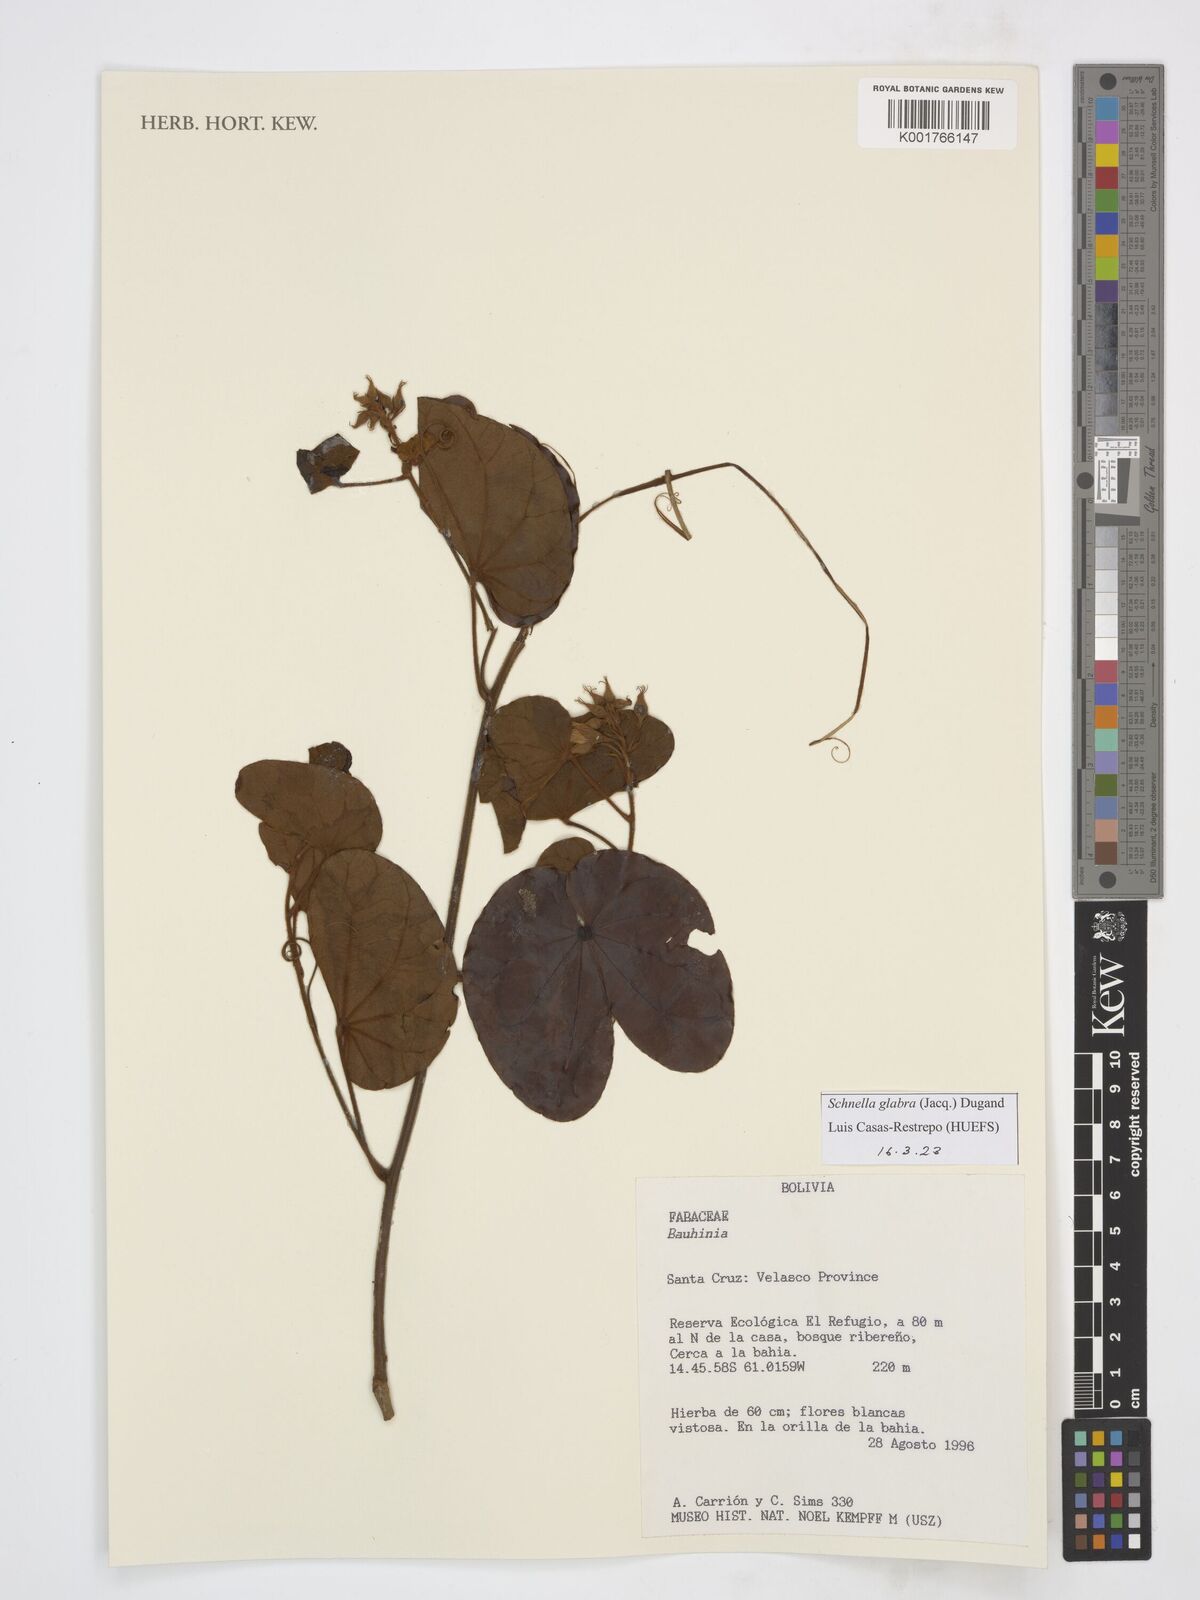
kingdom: Plantae
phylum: Tracheophyta
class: Magnoliopsida
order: Fabales
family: Fabaceae
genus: Schnella
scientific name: Schnella glabra
